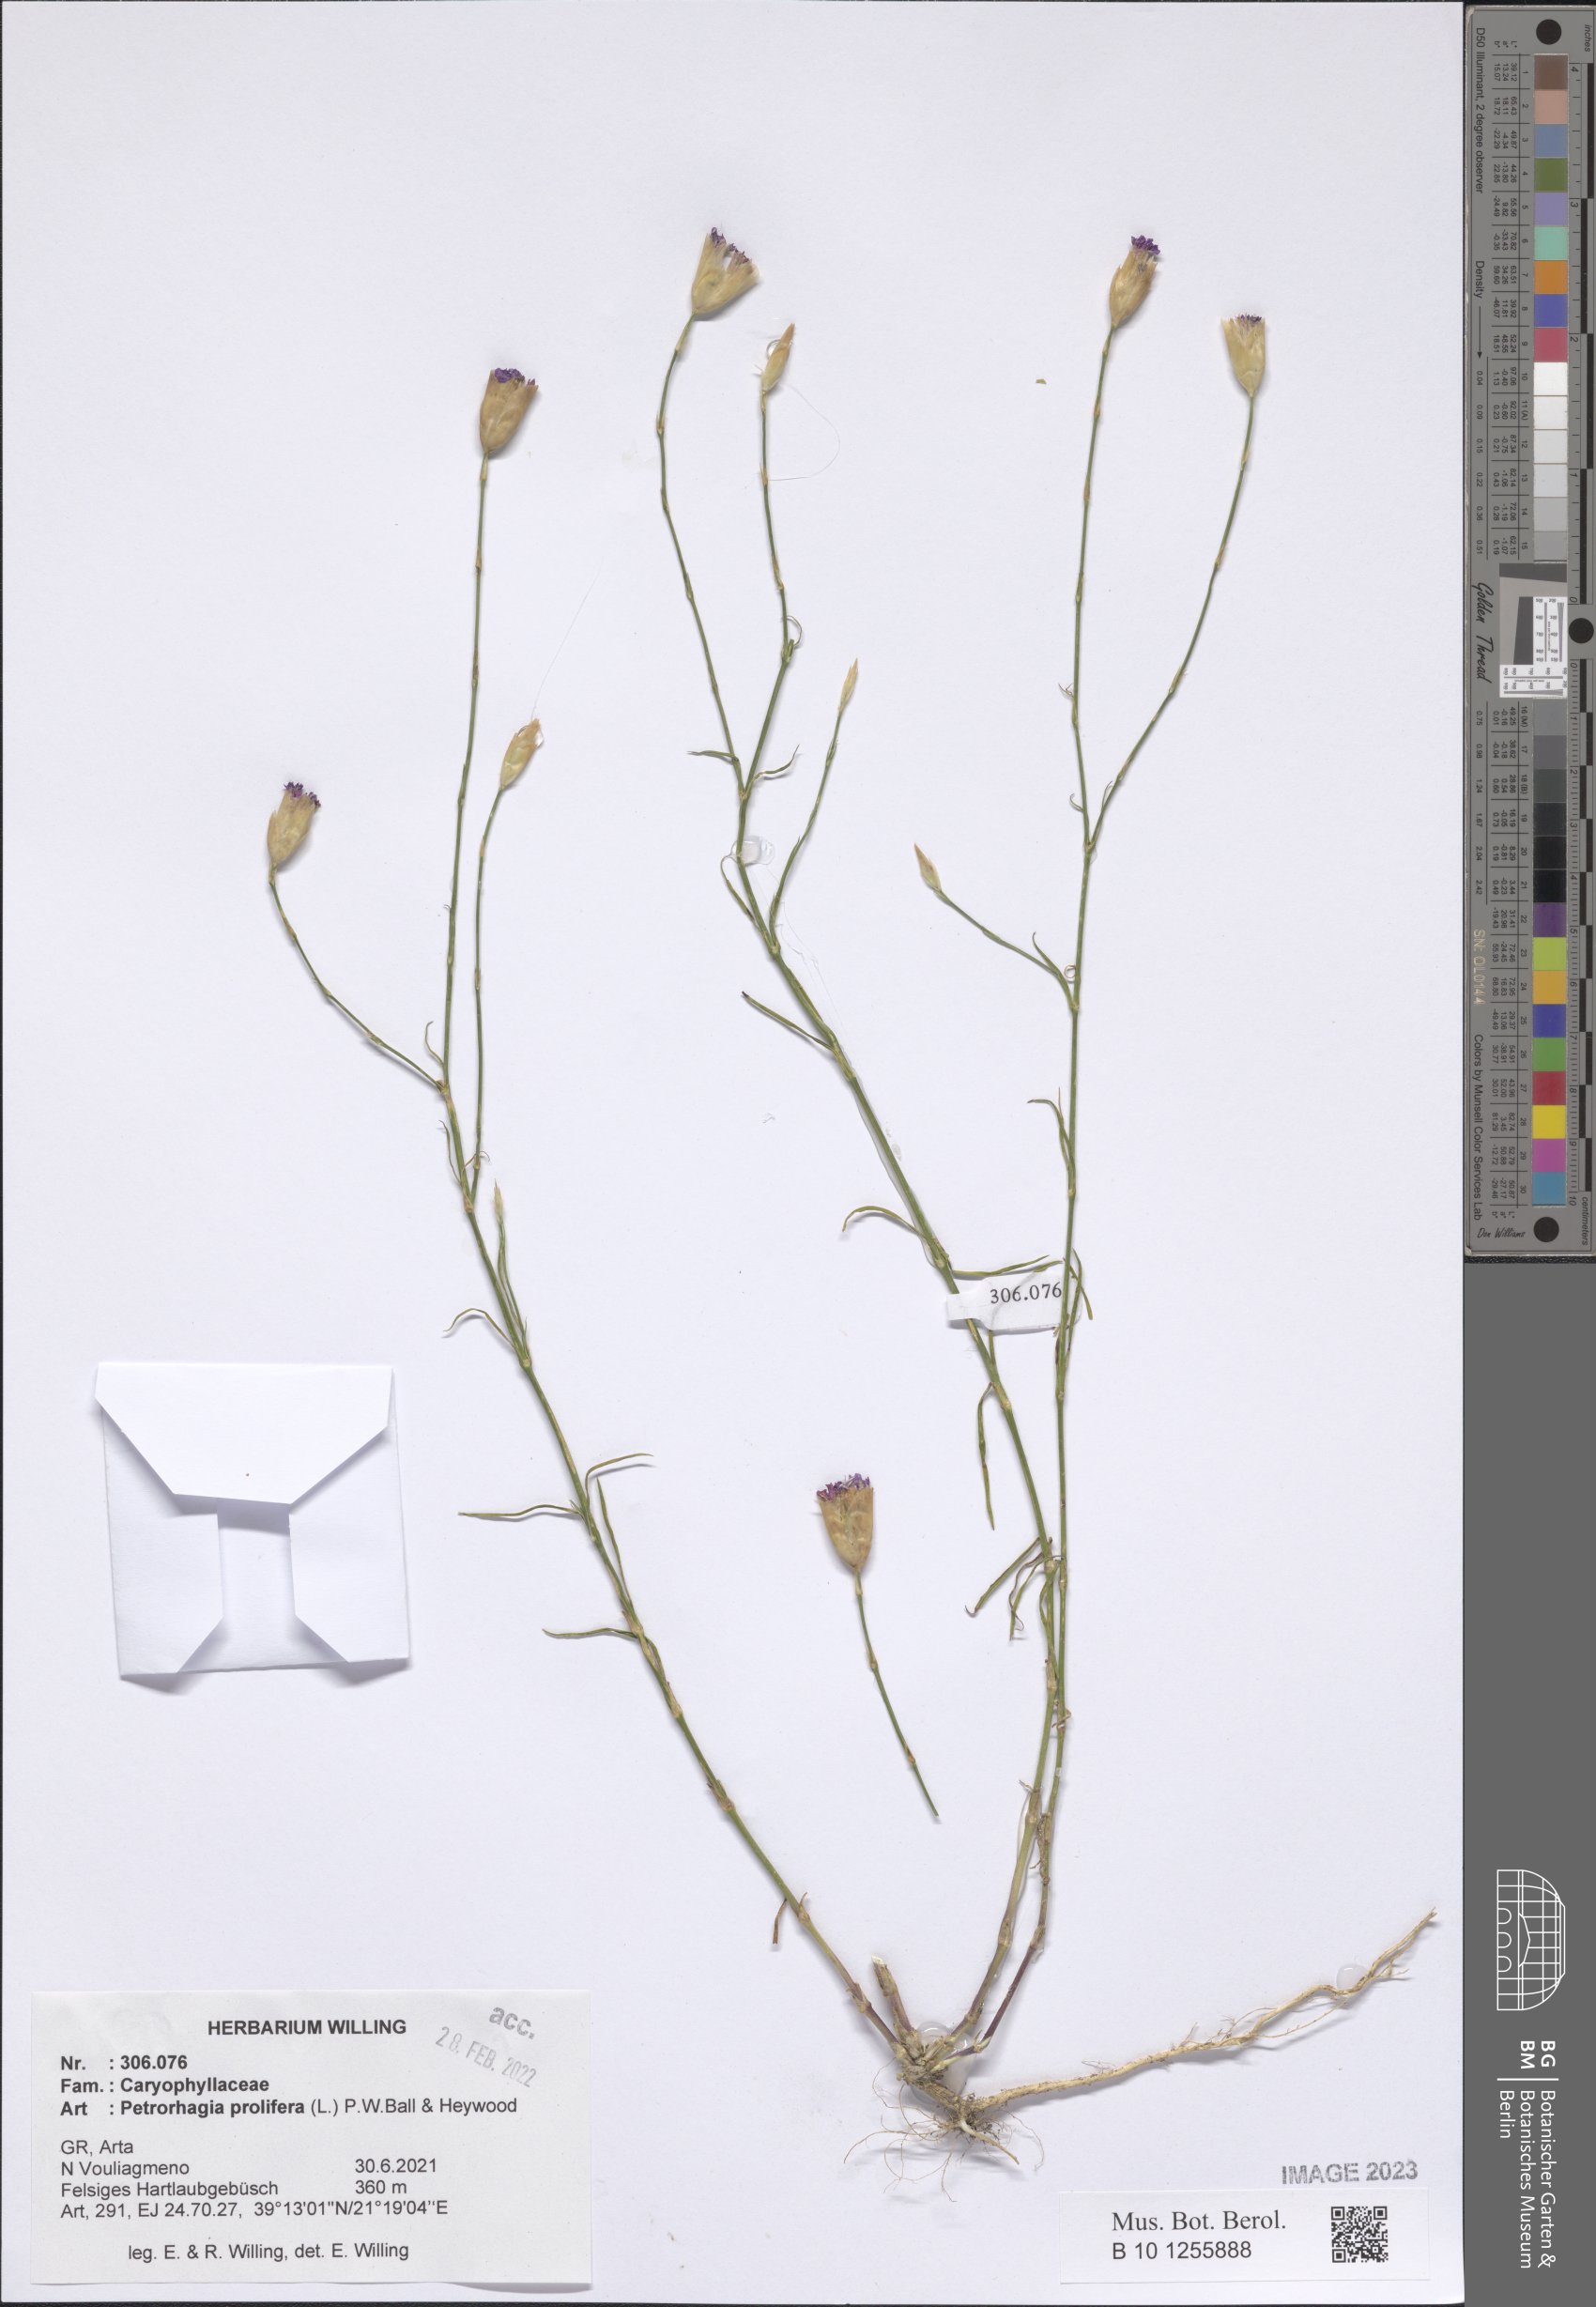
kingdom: Plantae
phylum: Tracheophyta
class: Magnoliopsida
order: Caryophyllales
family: Caryophyllaceae
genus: Petrorhagia
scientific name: Petrorhagia prolifera
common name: Proliferous pink
